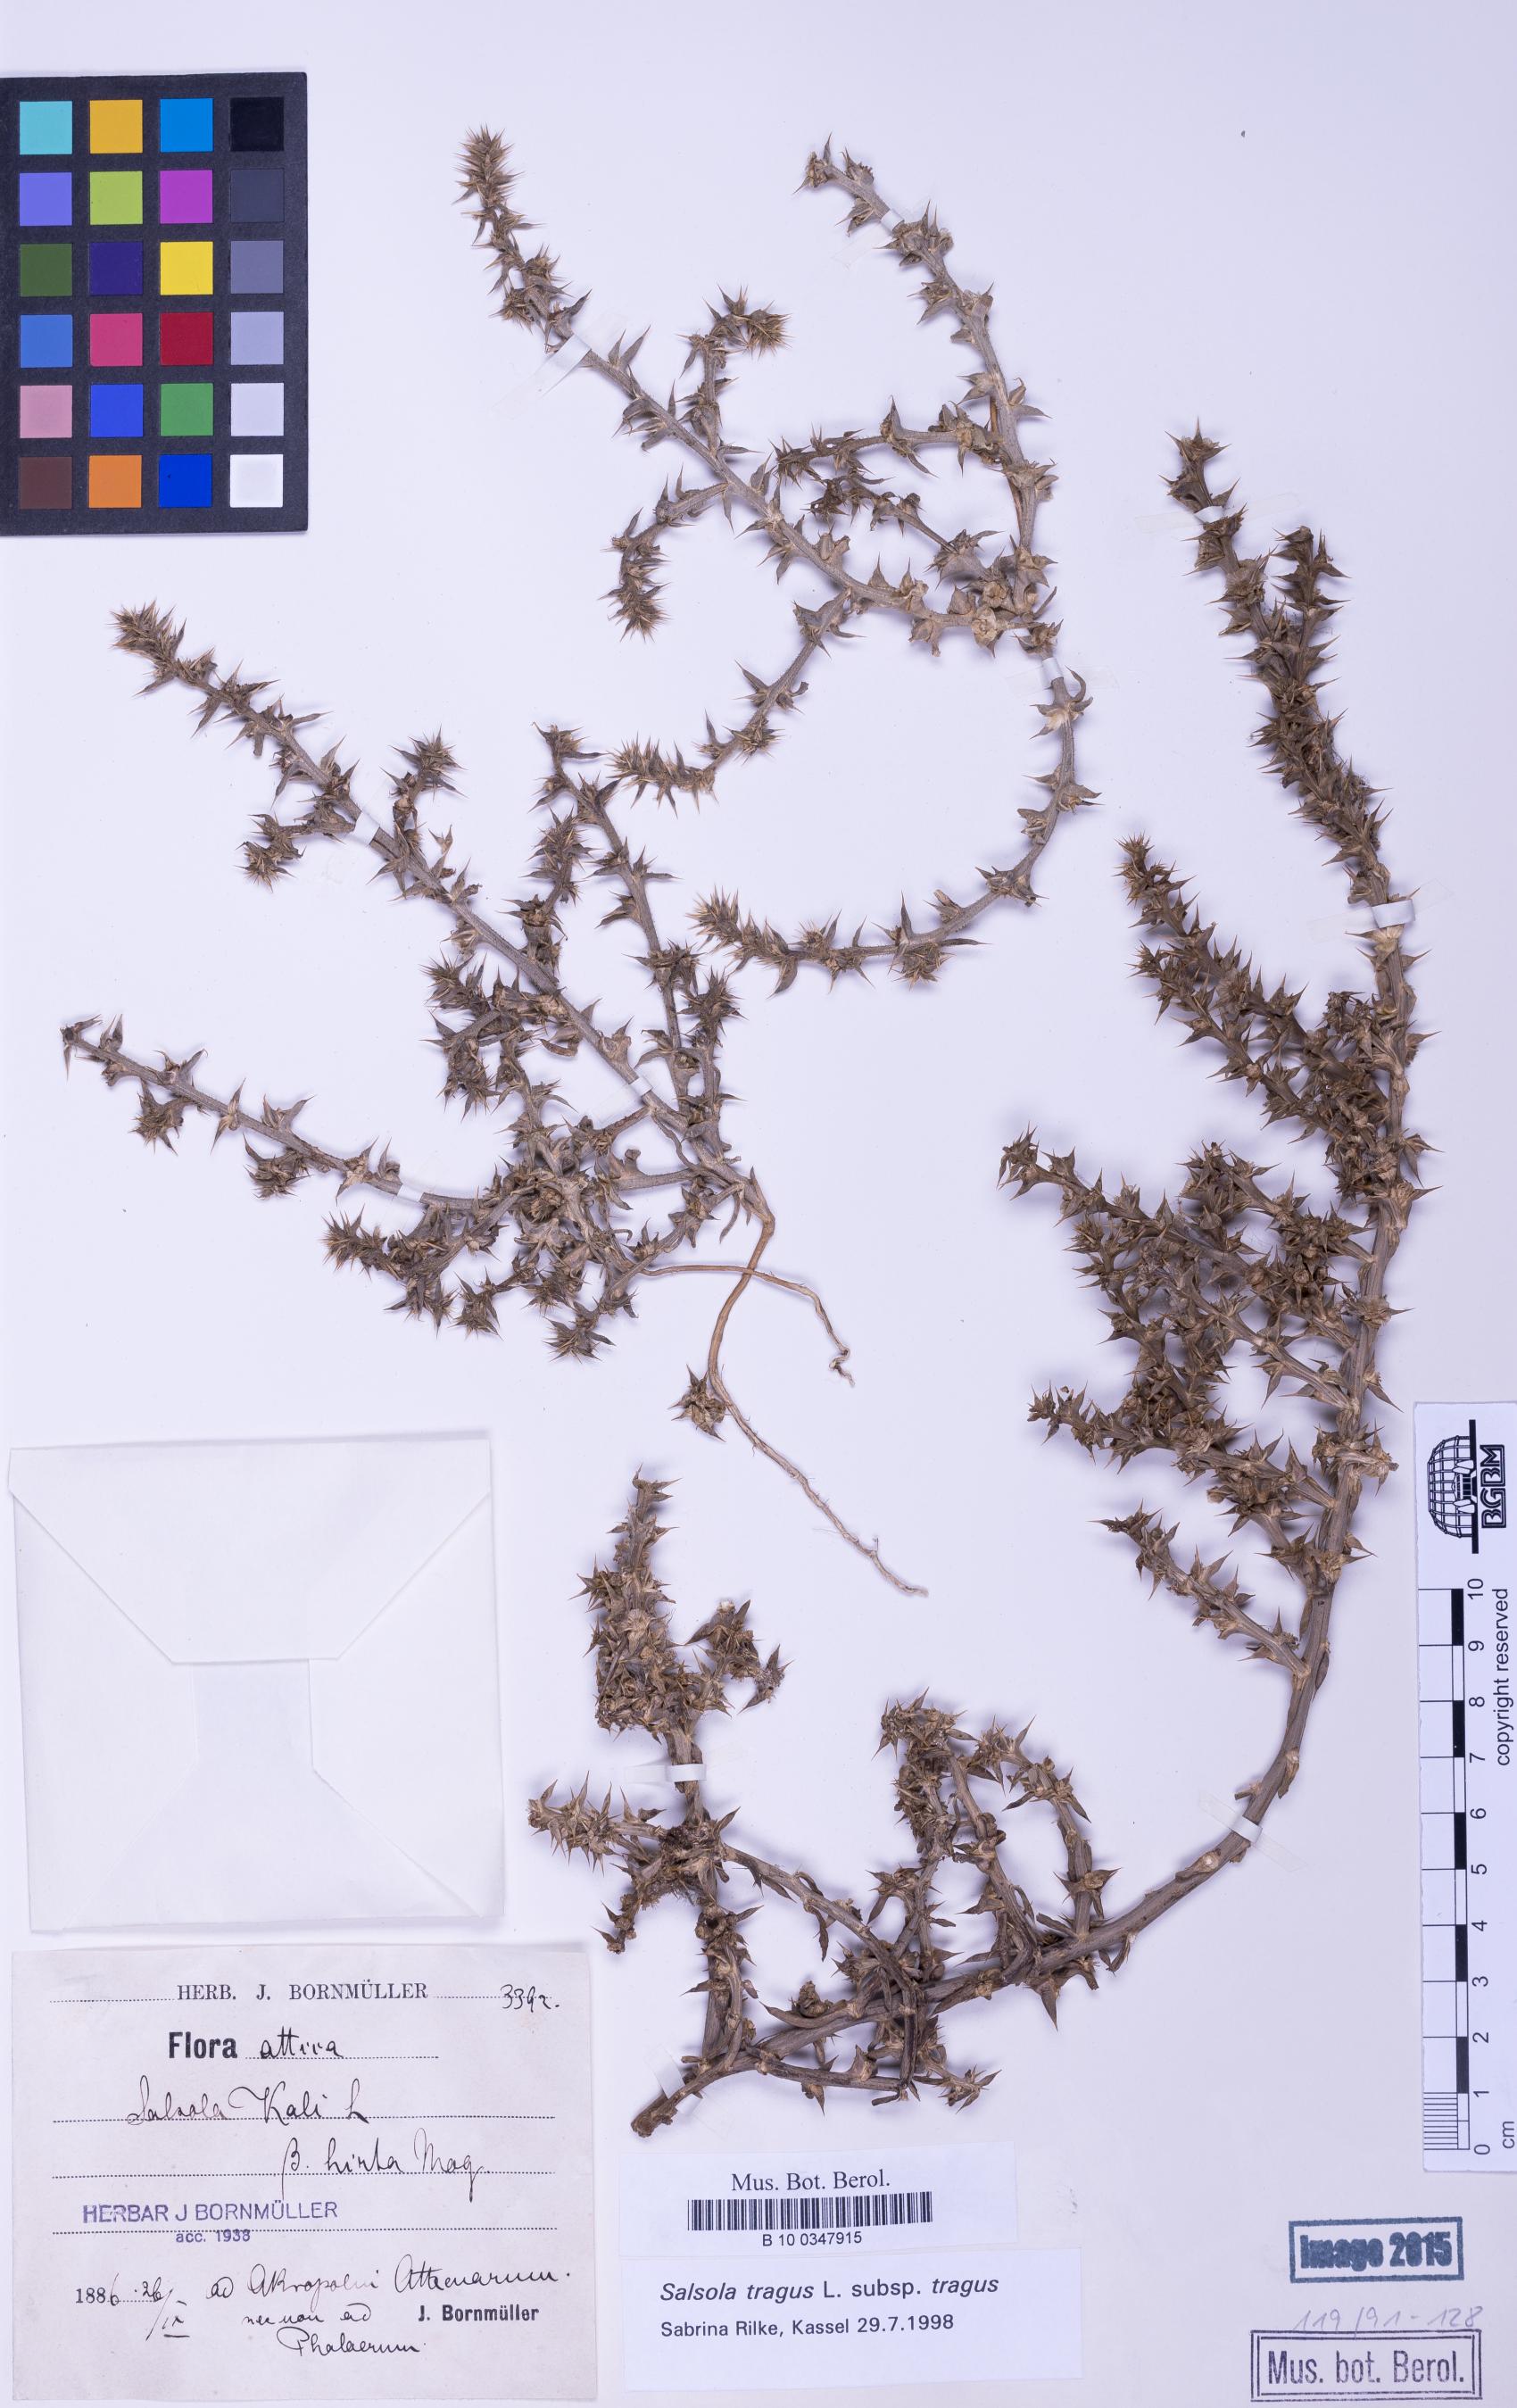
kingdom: Plantae
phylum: Tracheophyta
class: Magnoliopsida
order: Caryophyllales
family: Amaranthaceae
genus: Salsola
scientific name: Salsola tragus
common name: Prickly russian thistle
